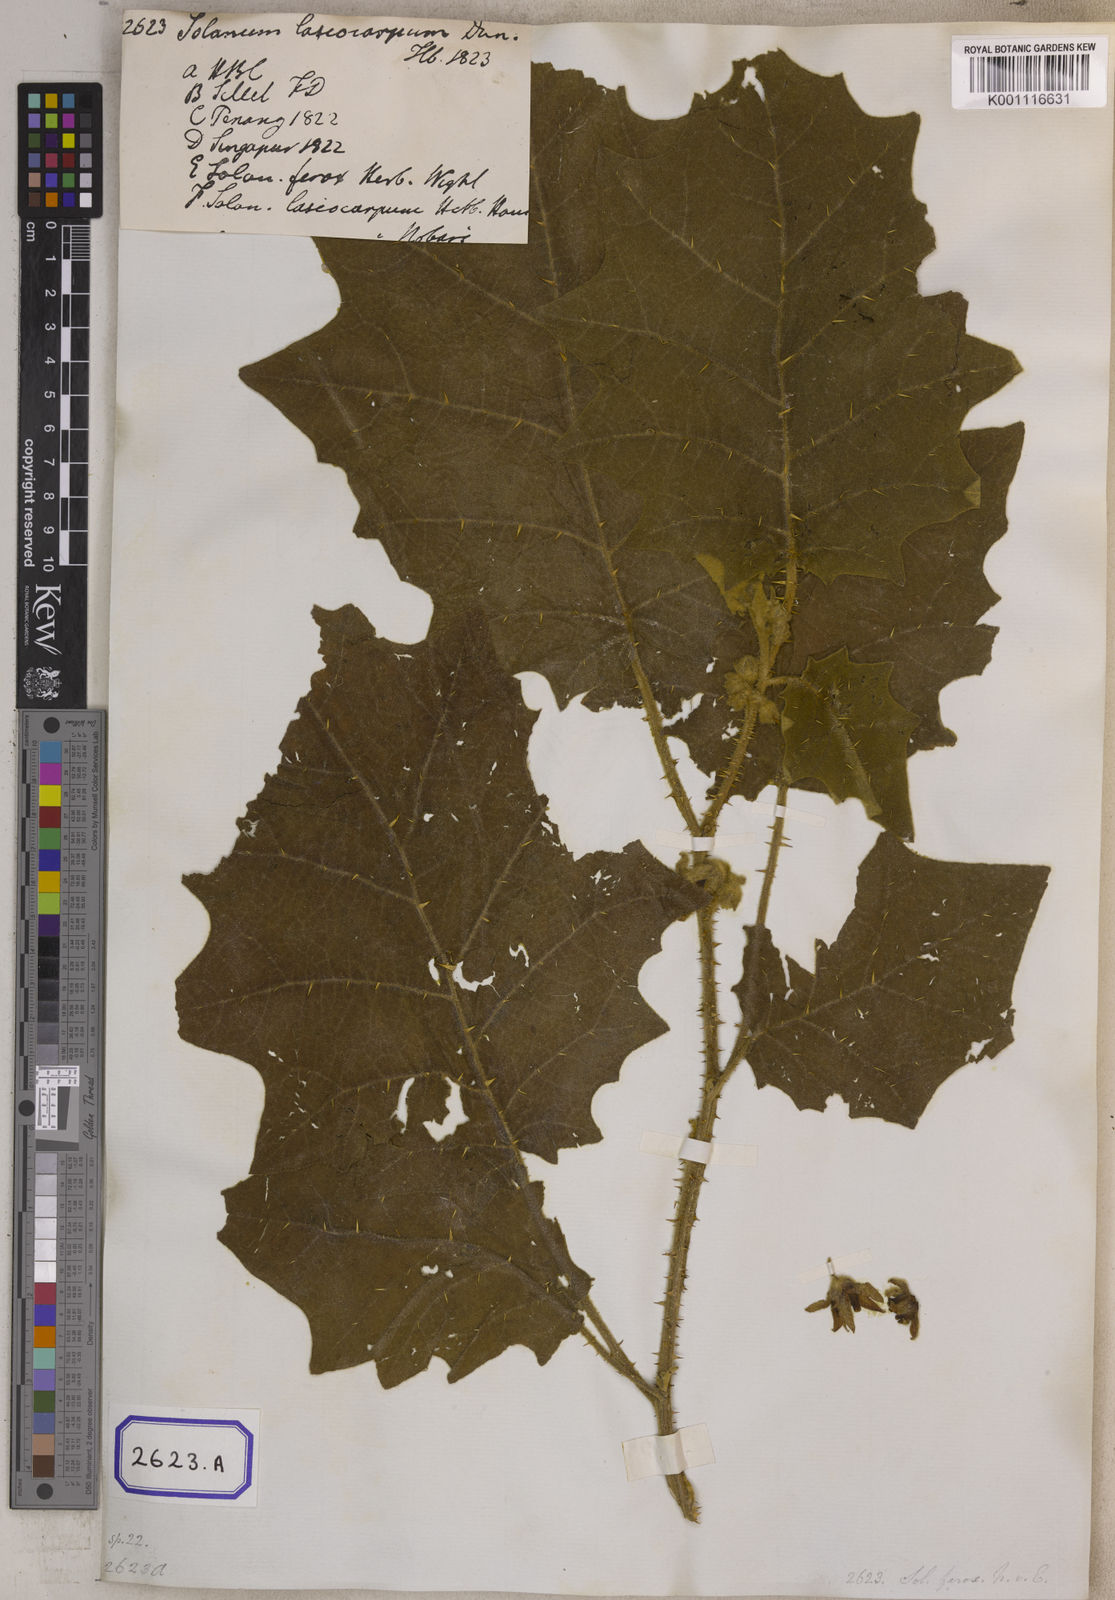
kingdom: Plantae
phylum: Tracheophyta
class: Magnoliopsida
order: Solanales
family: Solanaceae
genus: Solanum
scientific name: Solanum lasiocarpum
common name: Indian nightshade
